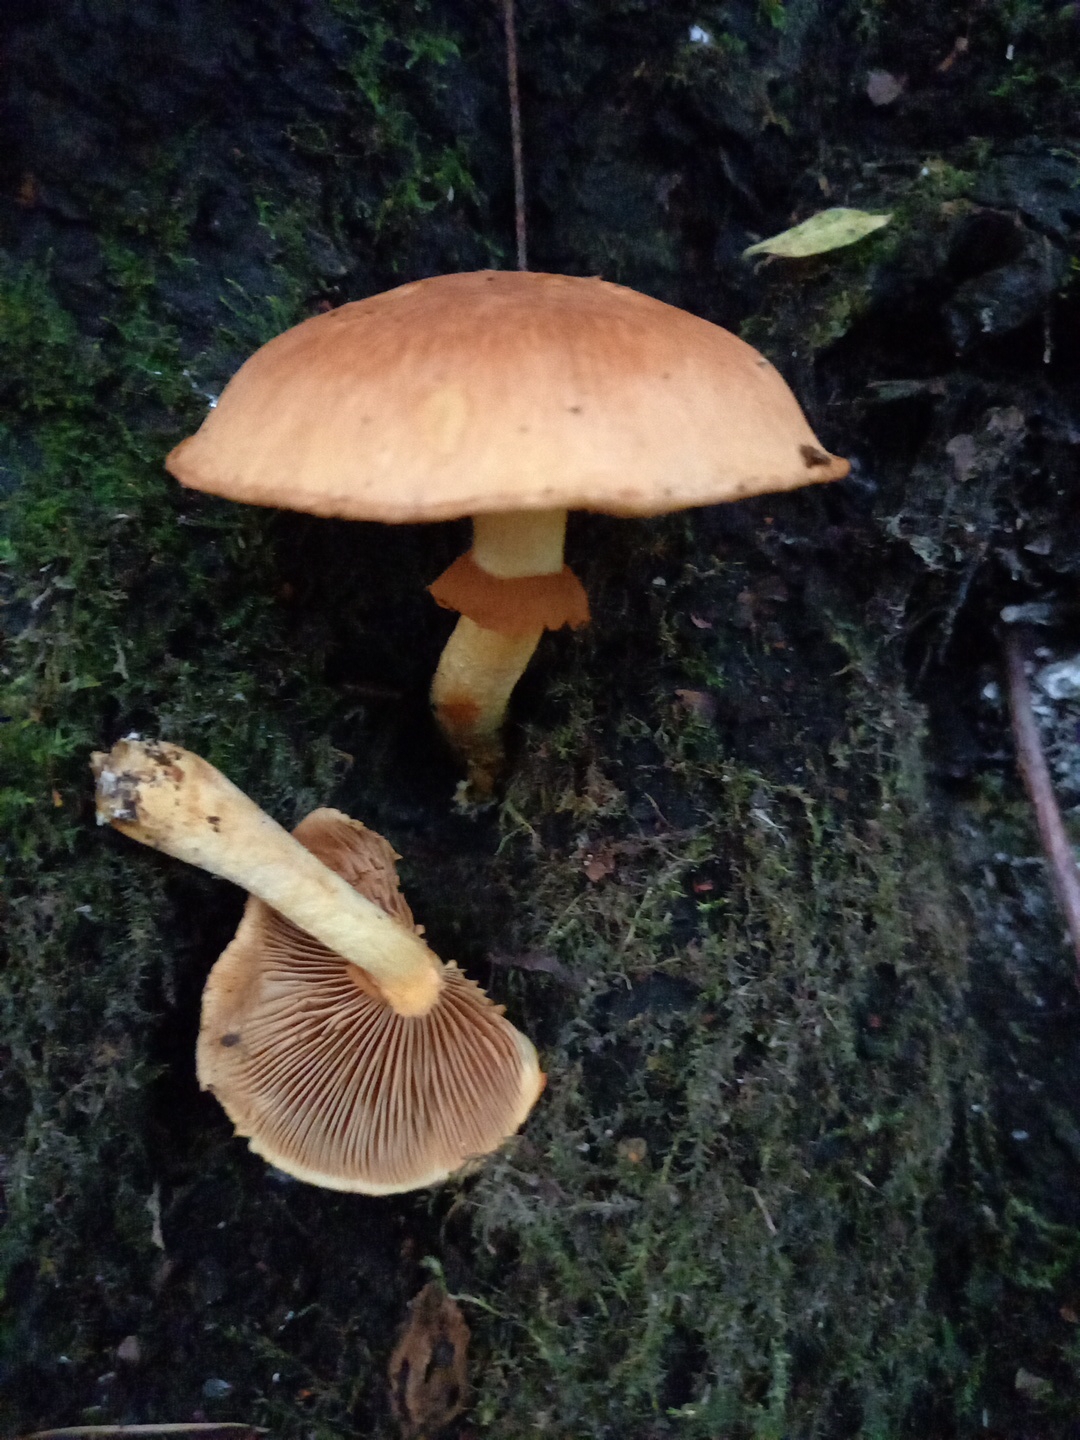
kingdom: Fungi
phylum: Basidiomycota
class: Agaricomycetes
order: Agaricales
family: Hymenogastraceae
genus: Gymnopilus
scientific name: Gymnopilus spectabilis
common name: fibret flammehat
